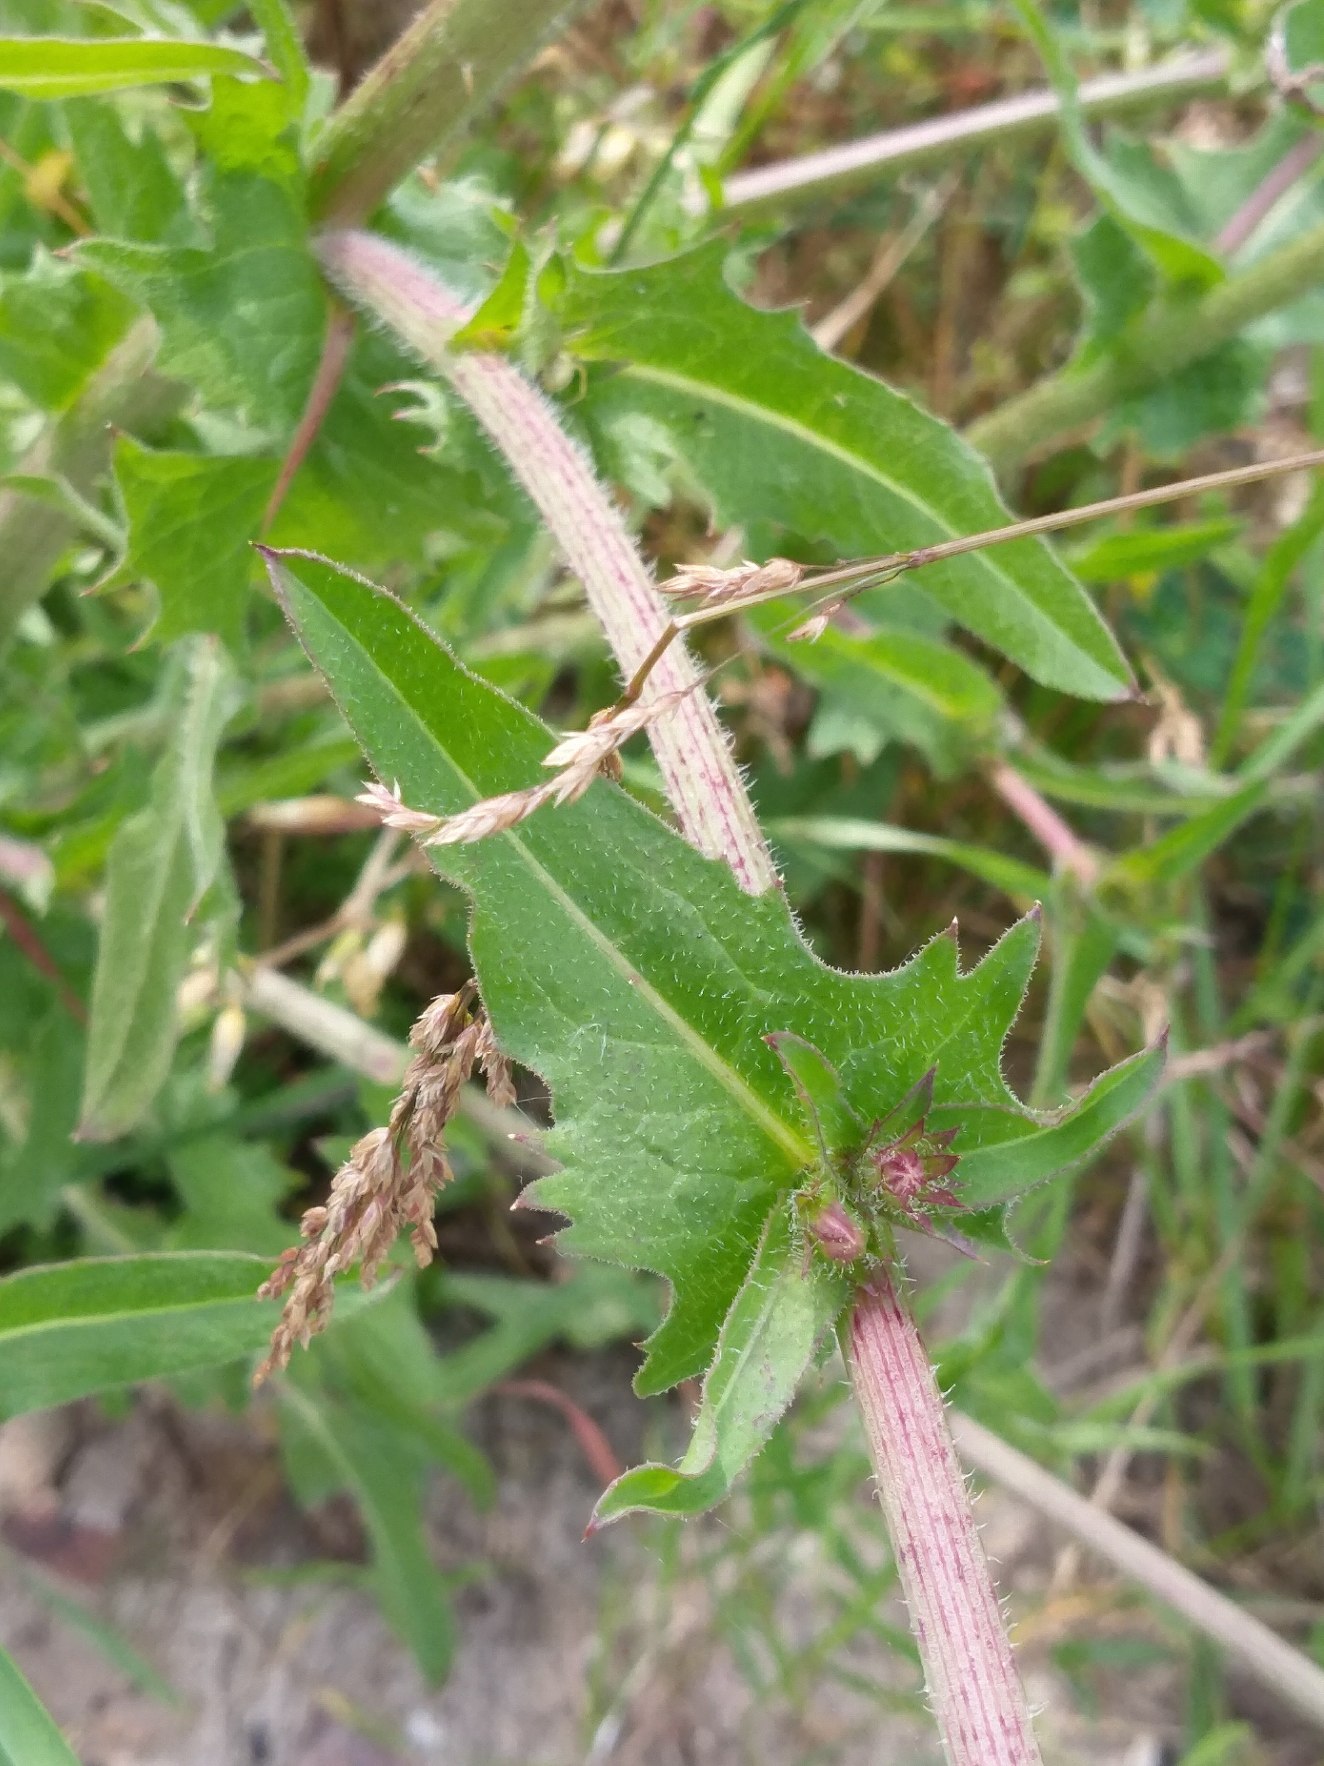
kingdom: Plantae
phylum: Tracheophyta
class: Magnoliopsida
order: Asterales
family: Asteraceae
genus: Cichorium
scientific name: Cichorium intybus
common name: Cikorie
